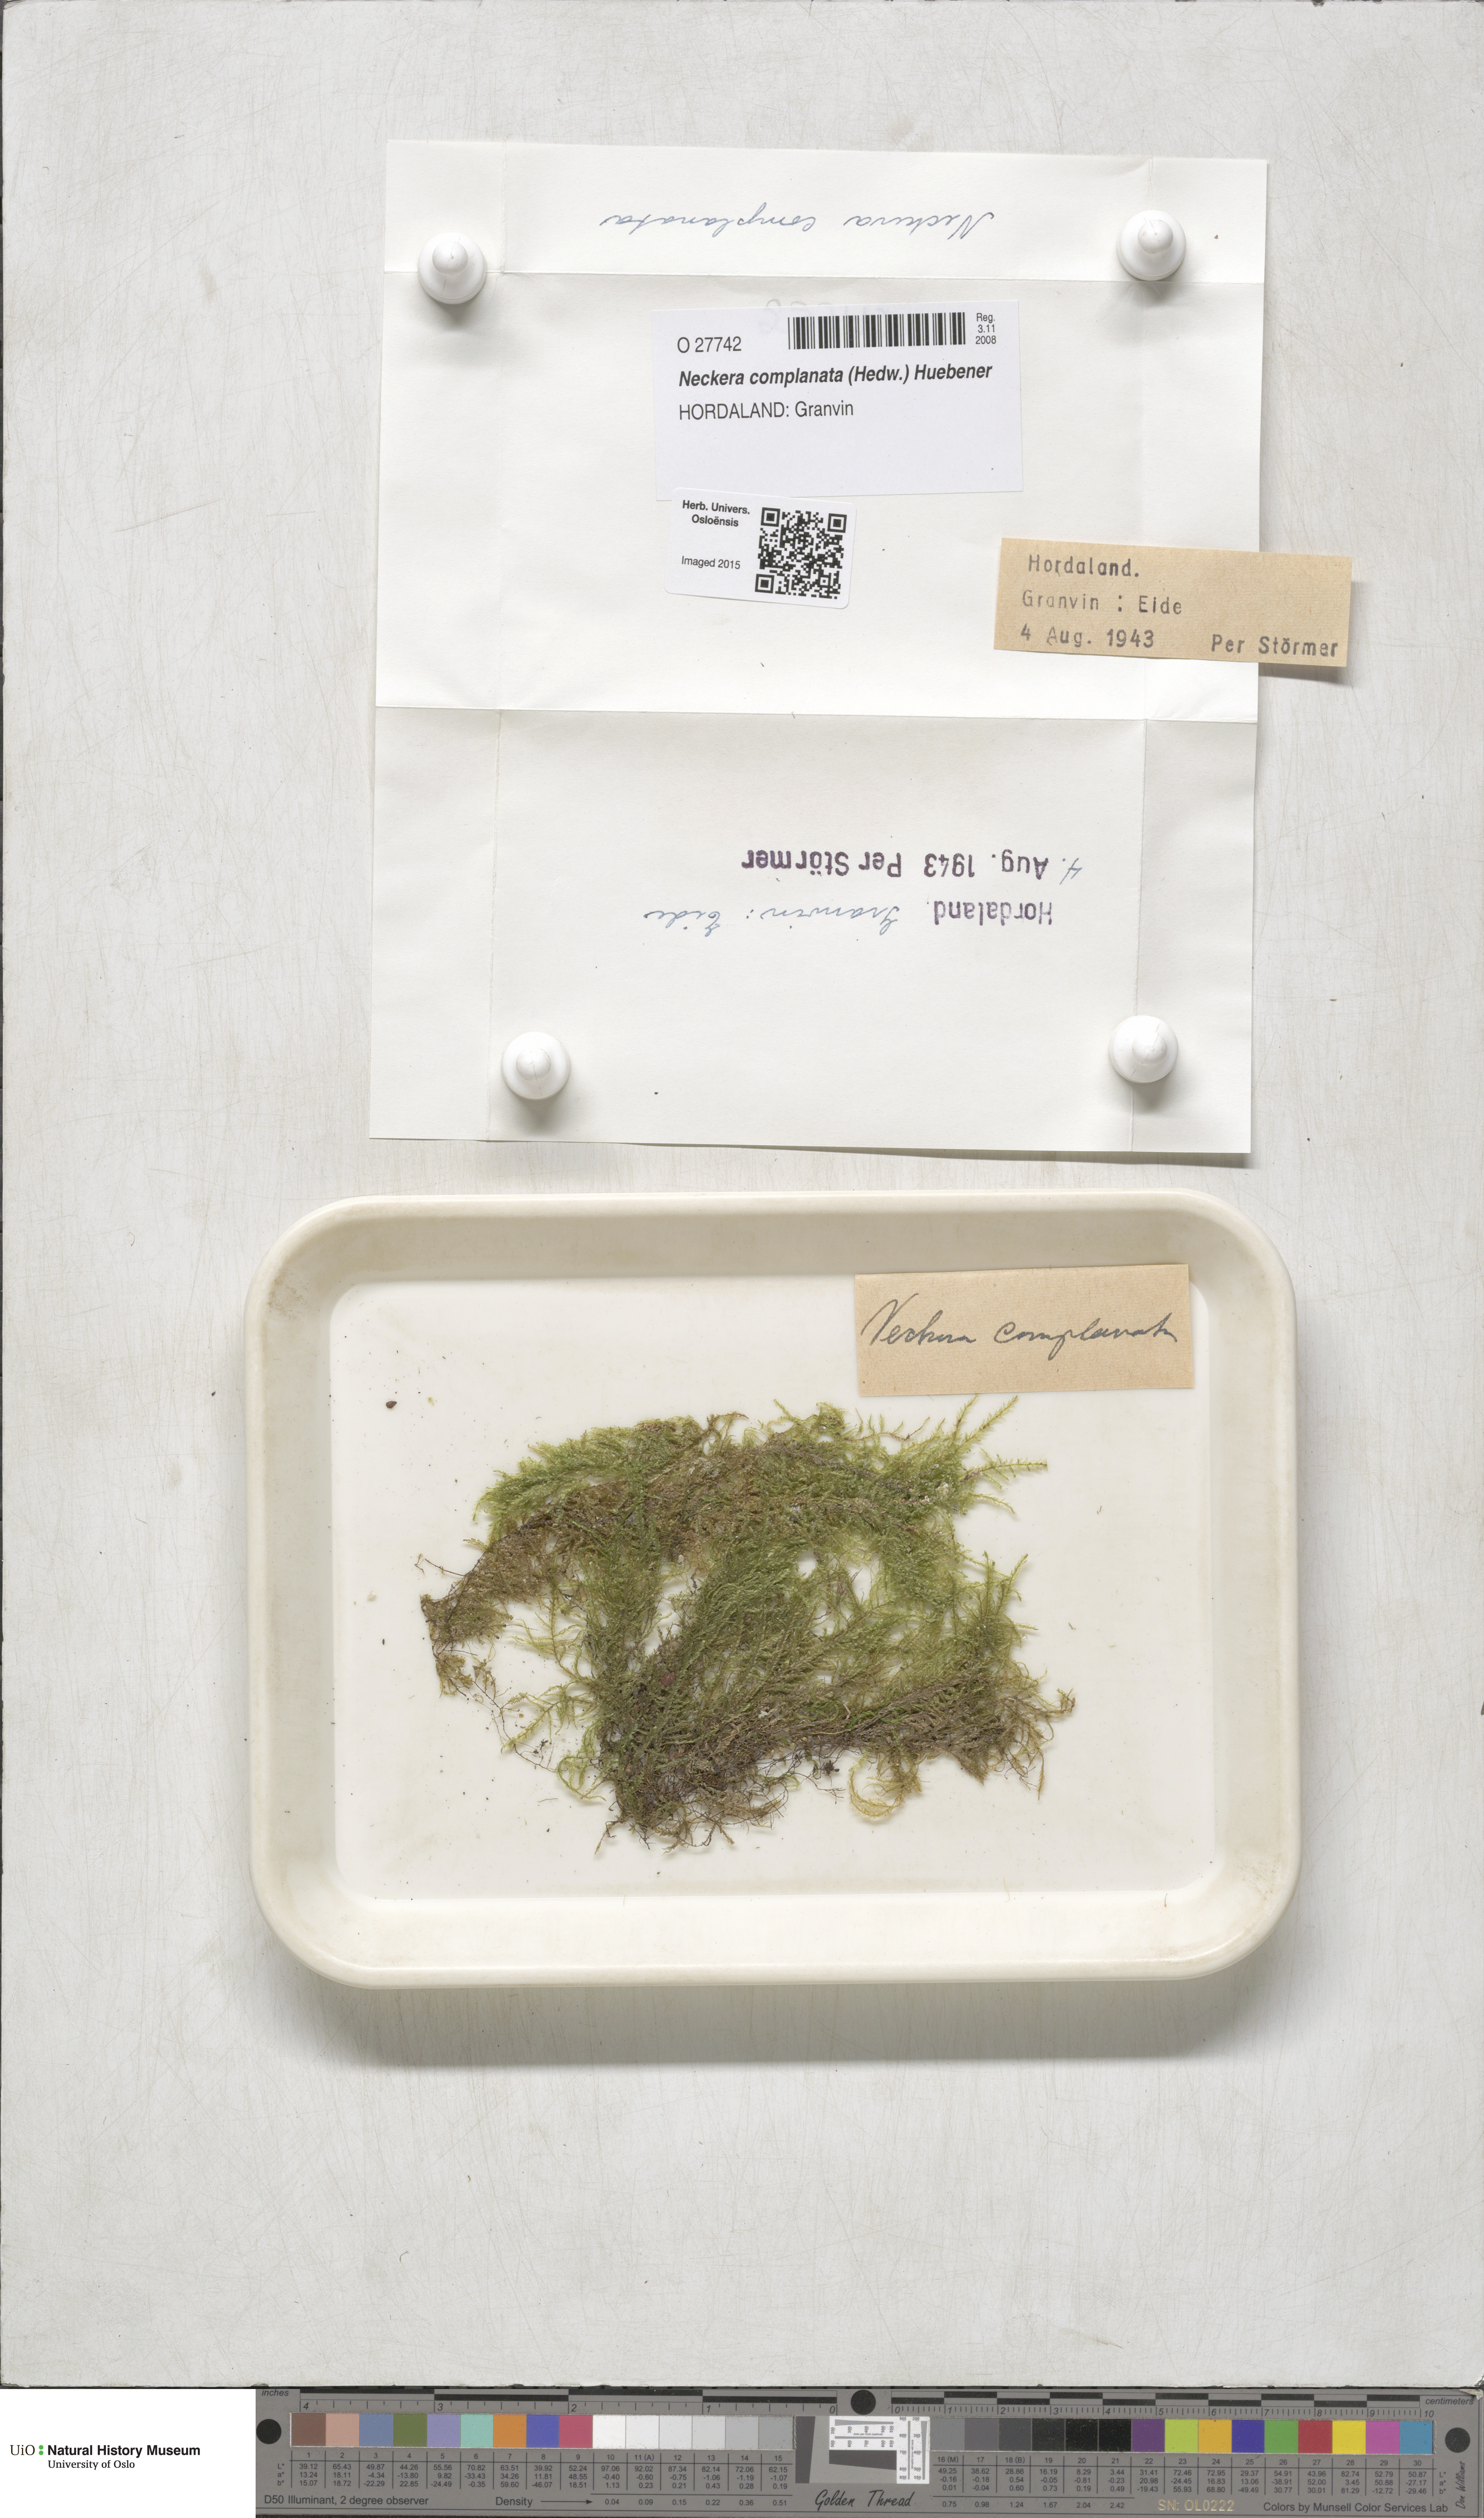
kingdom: Plantae
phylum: Bryophyta
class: Bryopsida
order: Hypnales
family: Neckeraceae
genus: Alleniella
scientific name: Alleniella complanata
